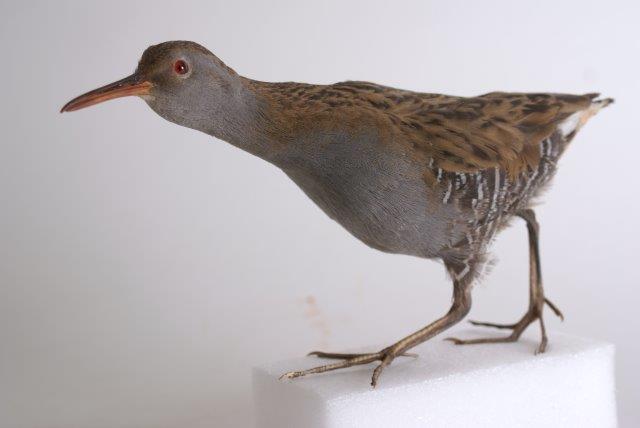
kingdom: Animalia
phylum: Chordata
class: Aves
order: Gruiformes
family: Rallidae
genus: Rallus
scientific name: Rallus aquaticus
